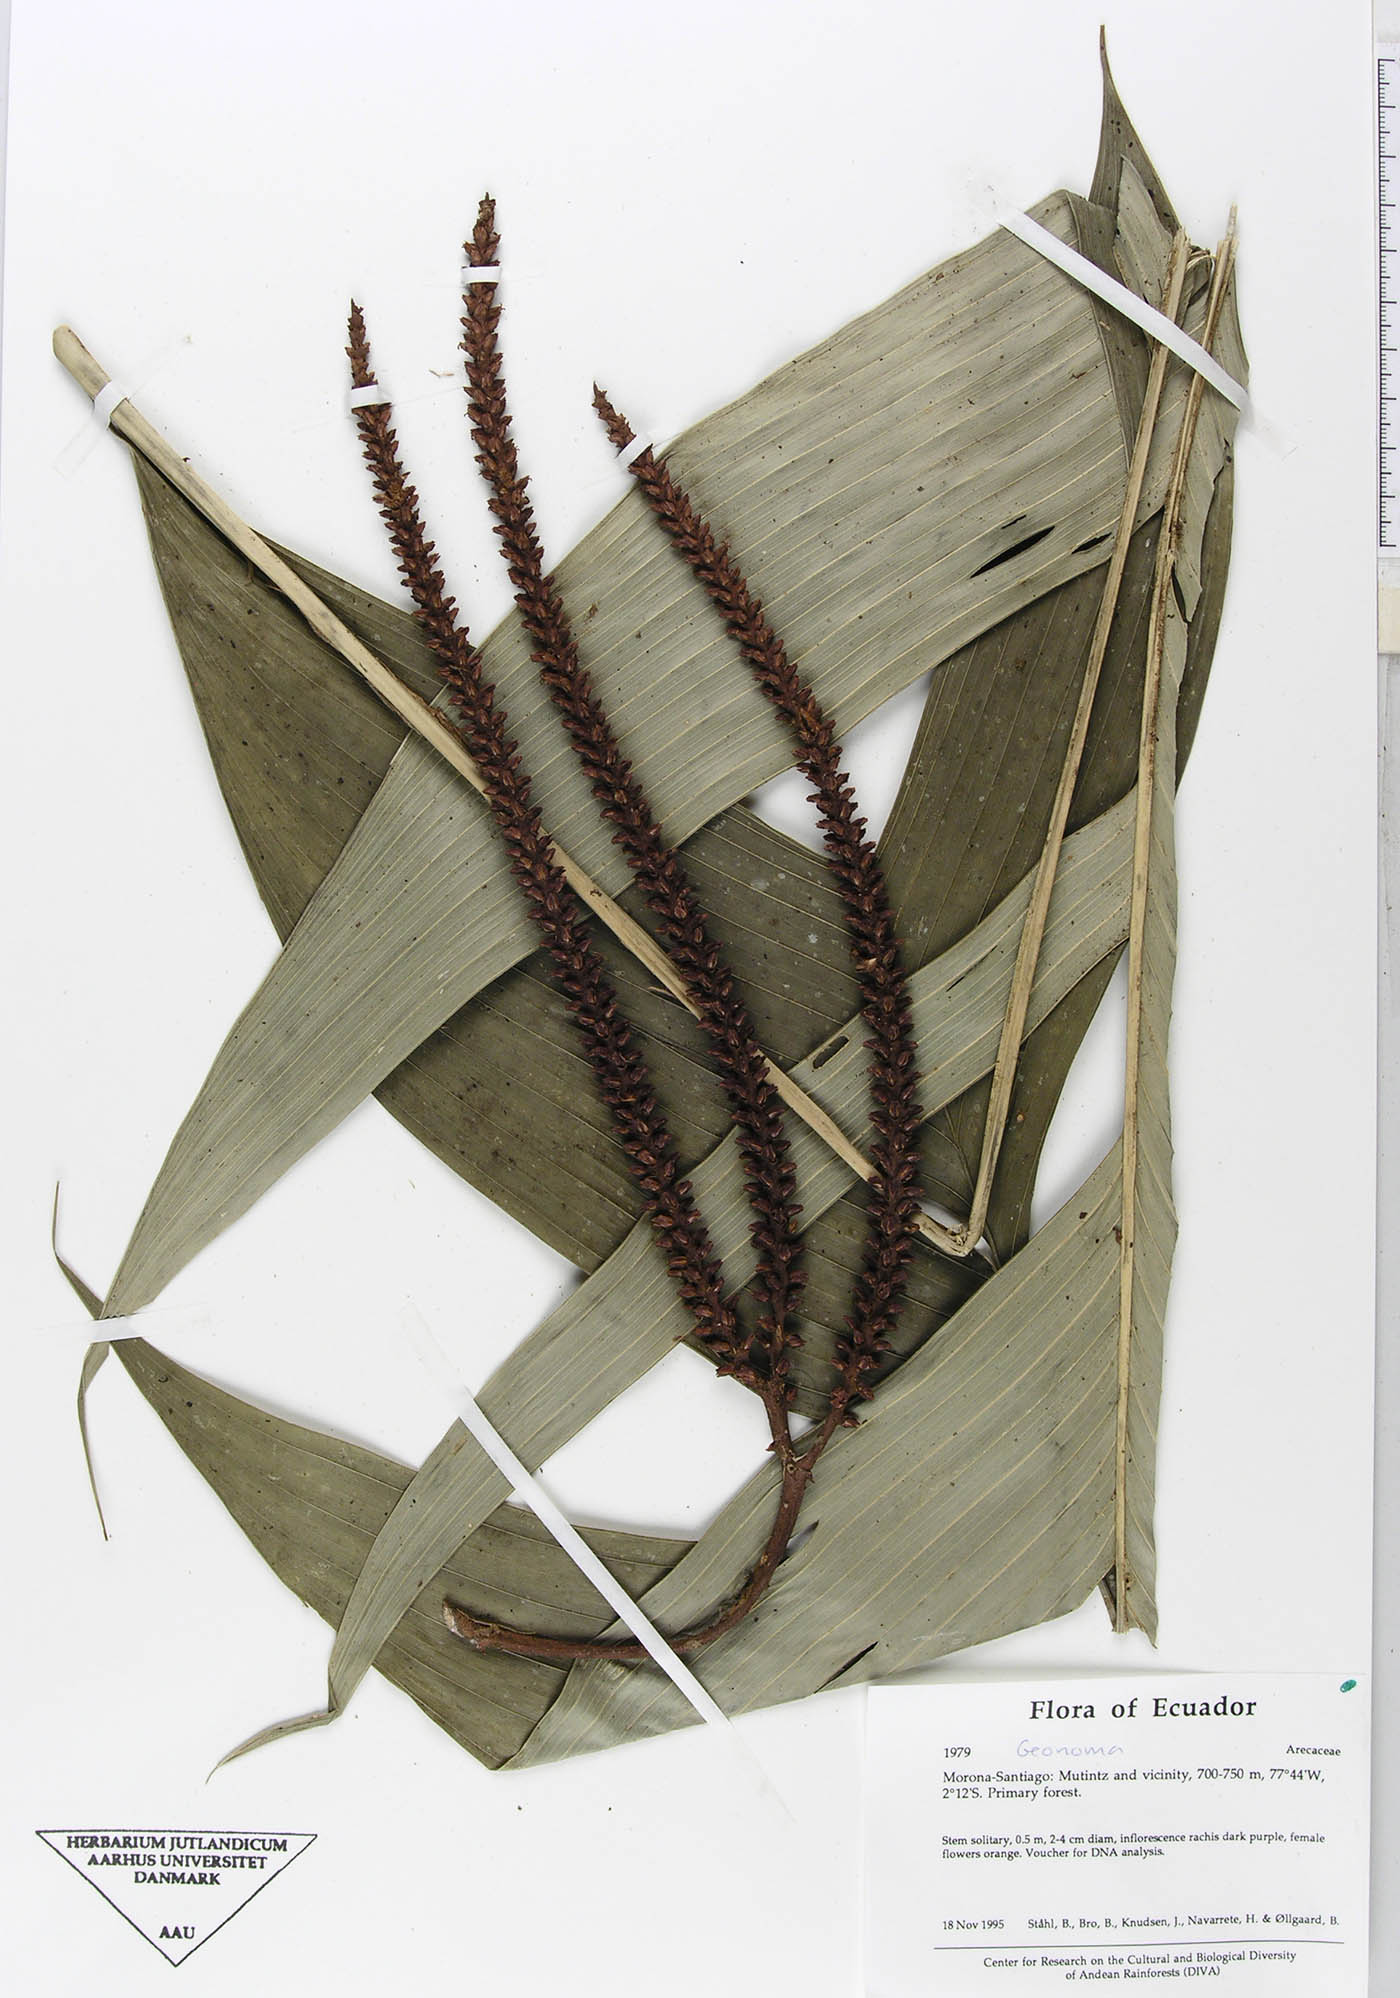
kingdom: Plantae
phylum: Tracheophyta
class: Liliopsida
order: Arecales
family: Arecaceae
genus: Geonoma
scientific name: Geonoma stricta
